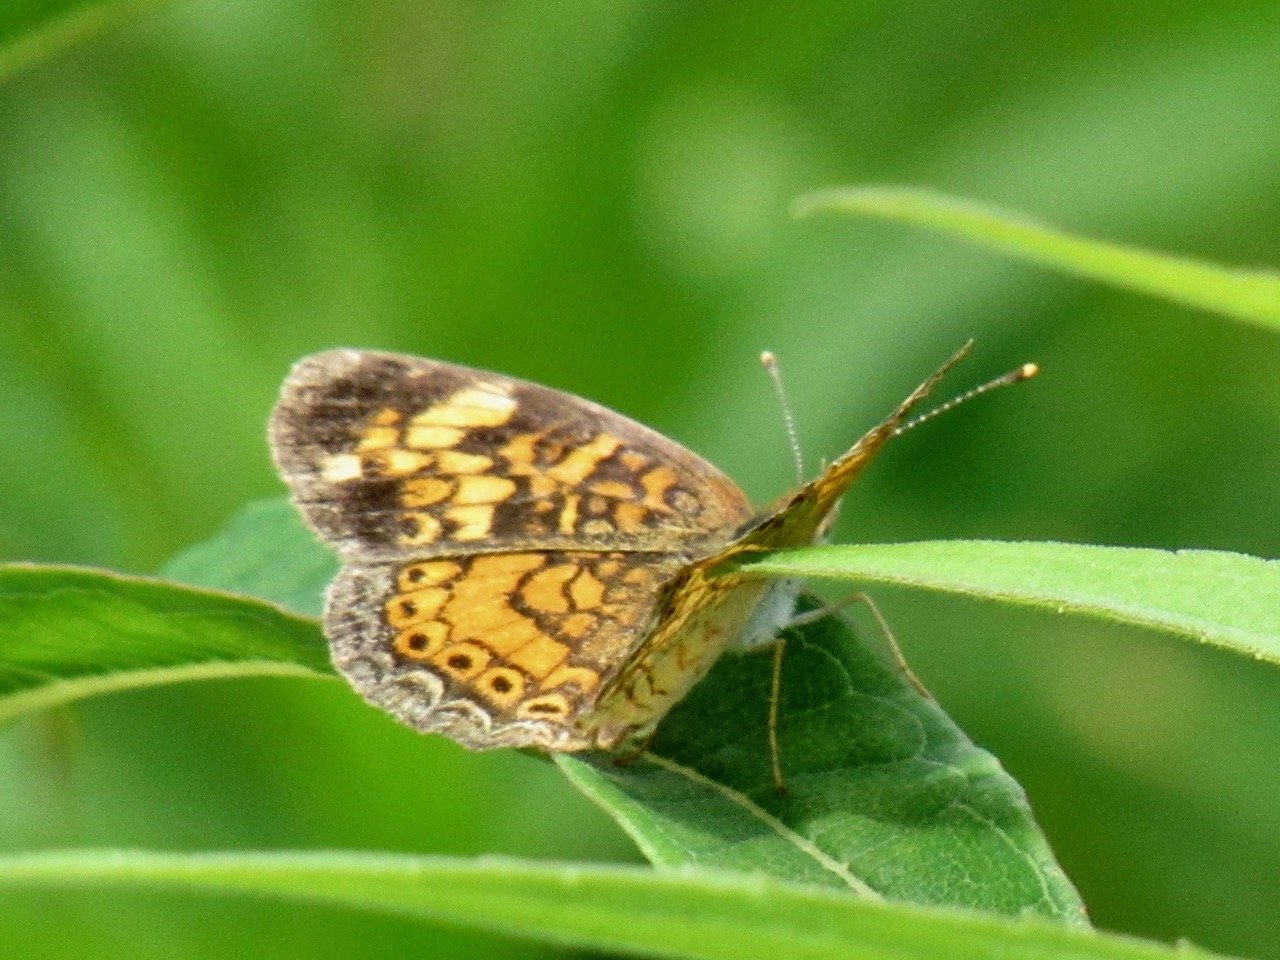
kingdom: Animalia
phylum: Arthropoda
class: Insecta
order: Lepidoptera
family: Nymphalidae
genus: Phyciodes
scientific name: Phyciodes tharos
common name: Pearl Crescent
